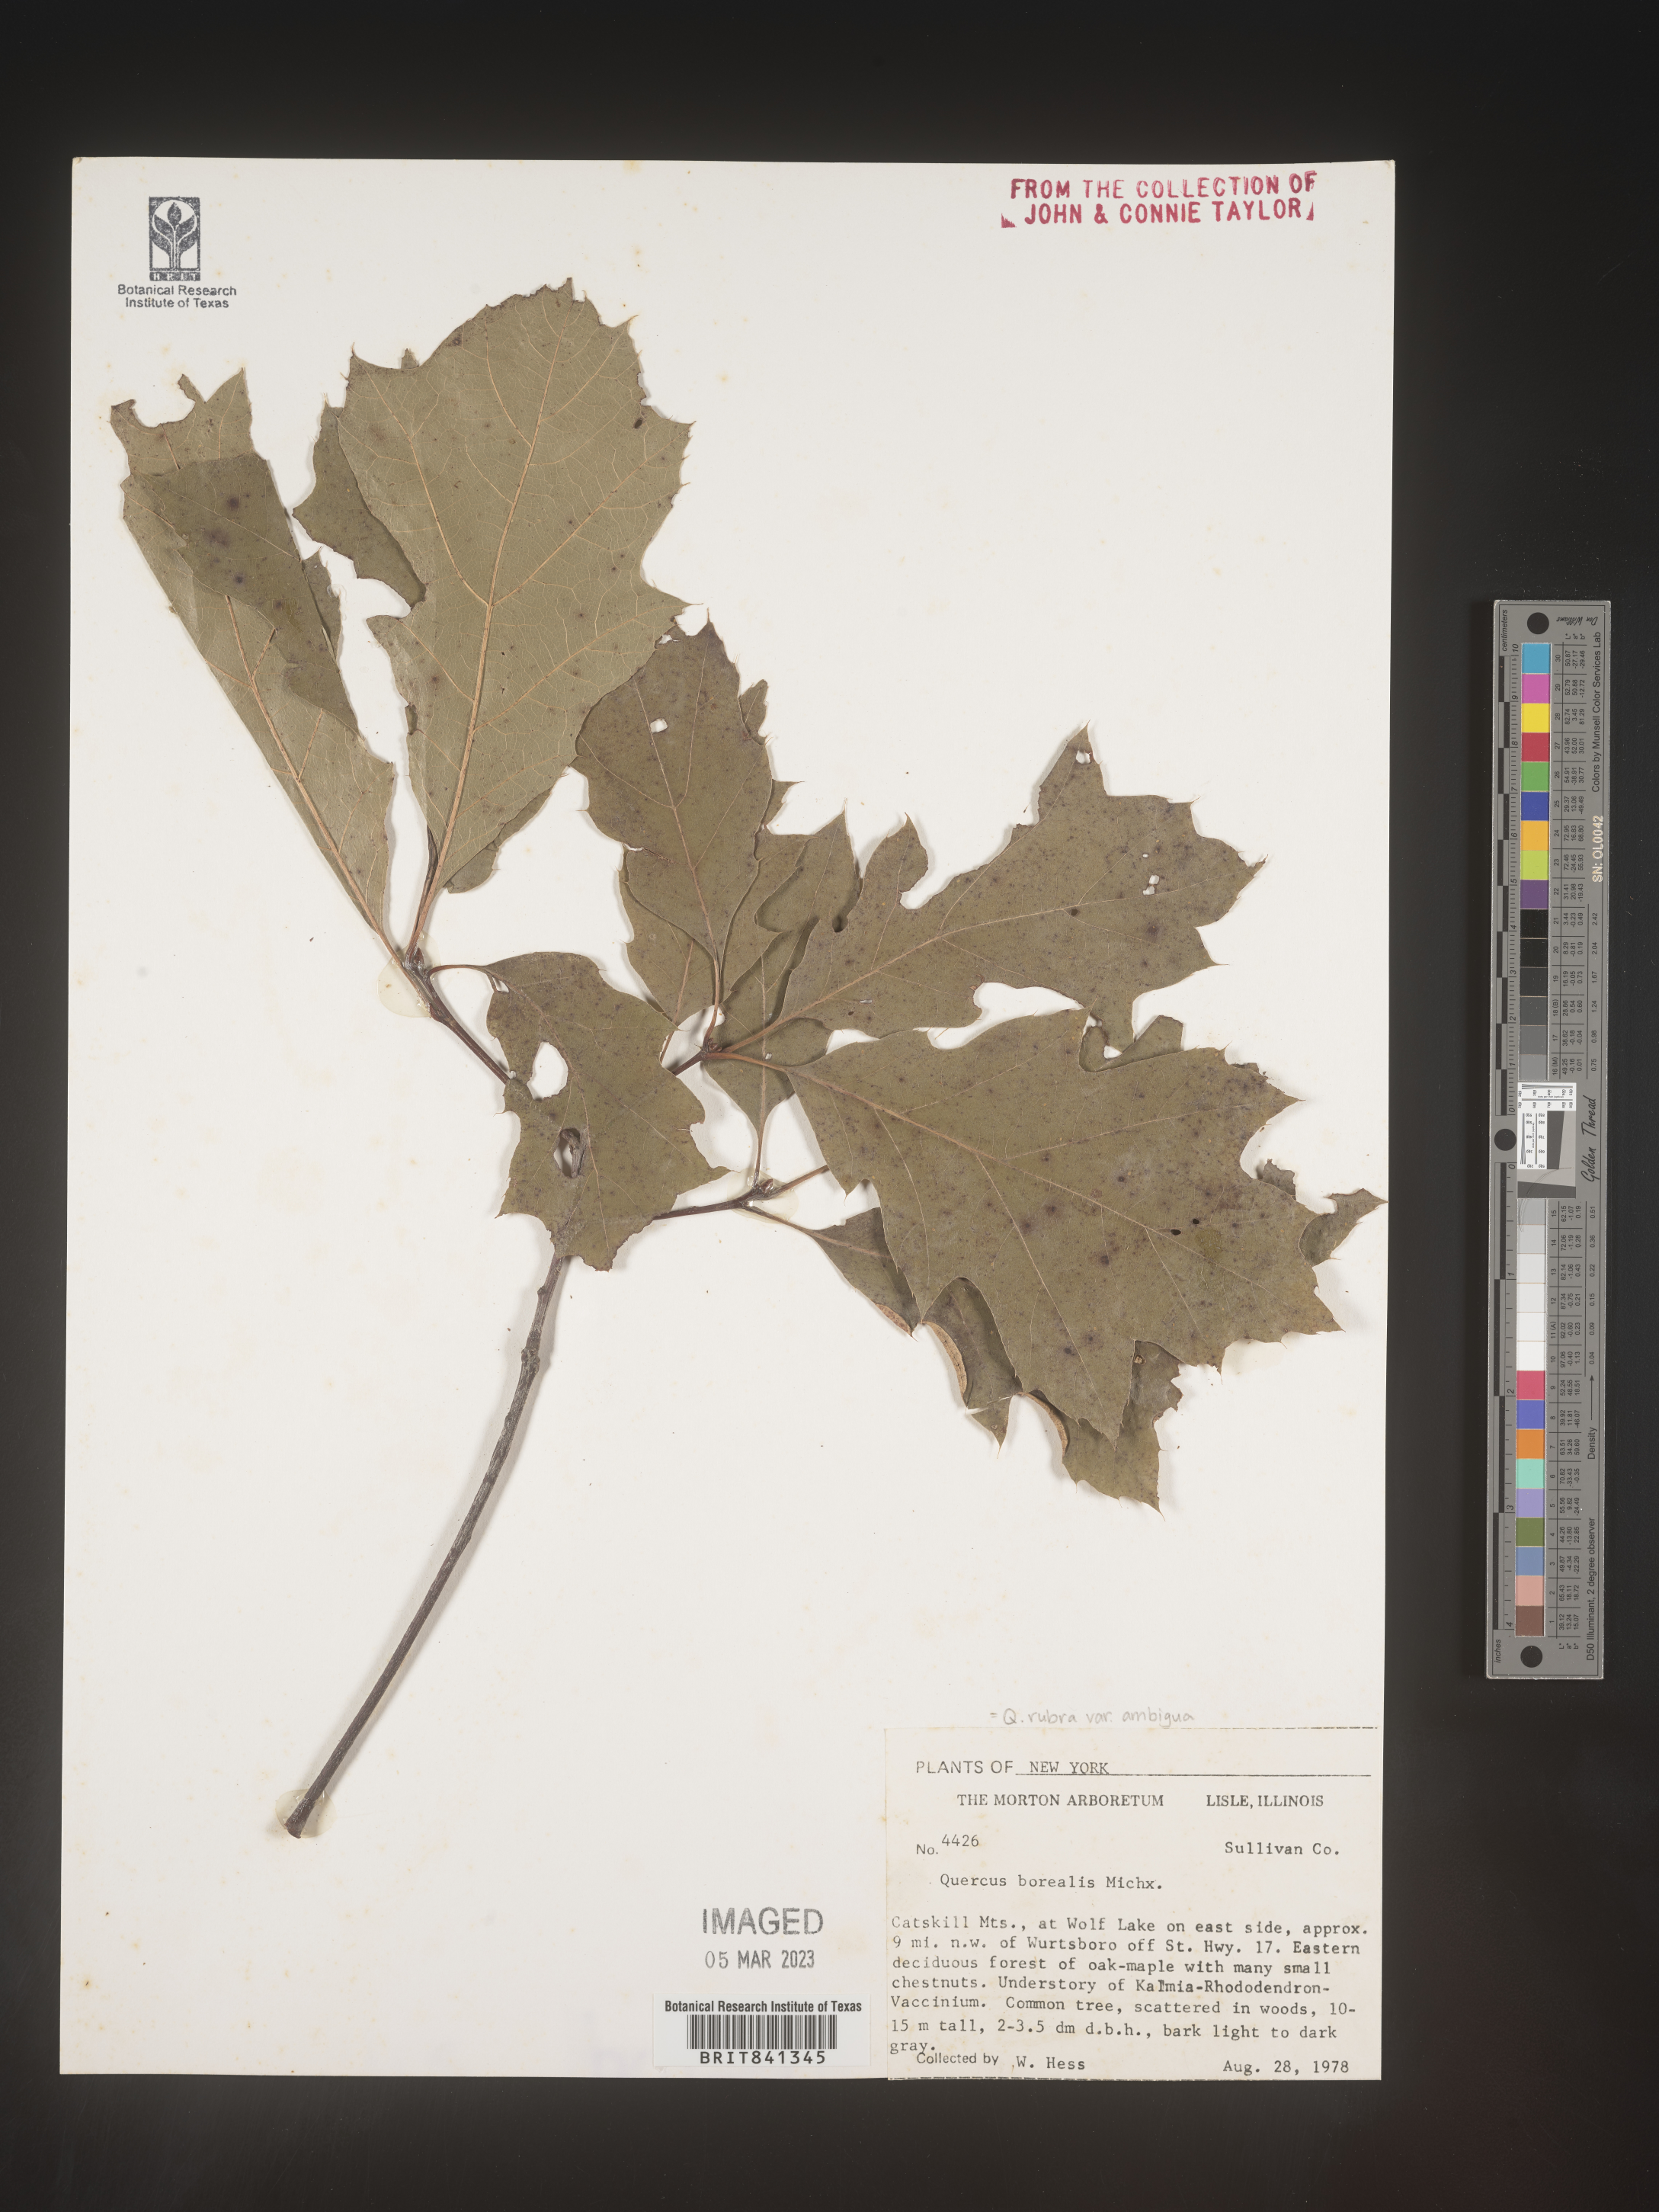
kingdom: Plantae
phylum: Tracheophyta
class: Magnoliopsida
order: Fagales
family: Fagaceae
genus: Quercus
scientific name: Quercus rubra
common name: Red oak
